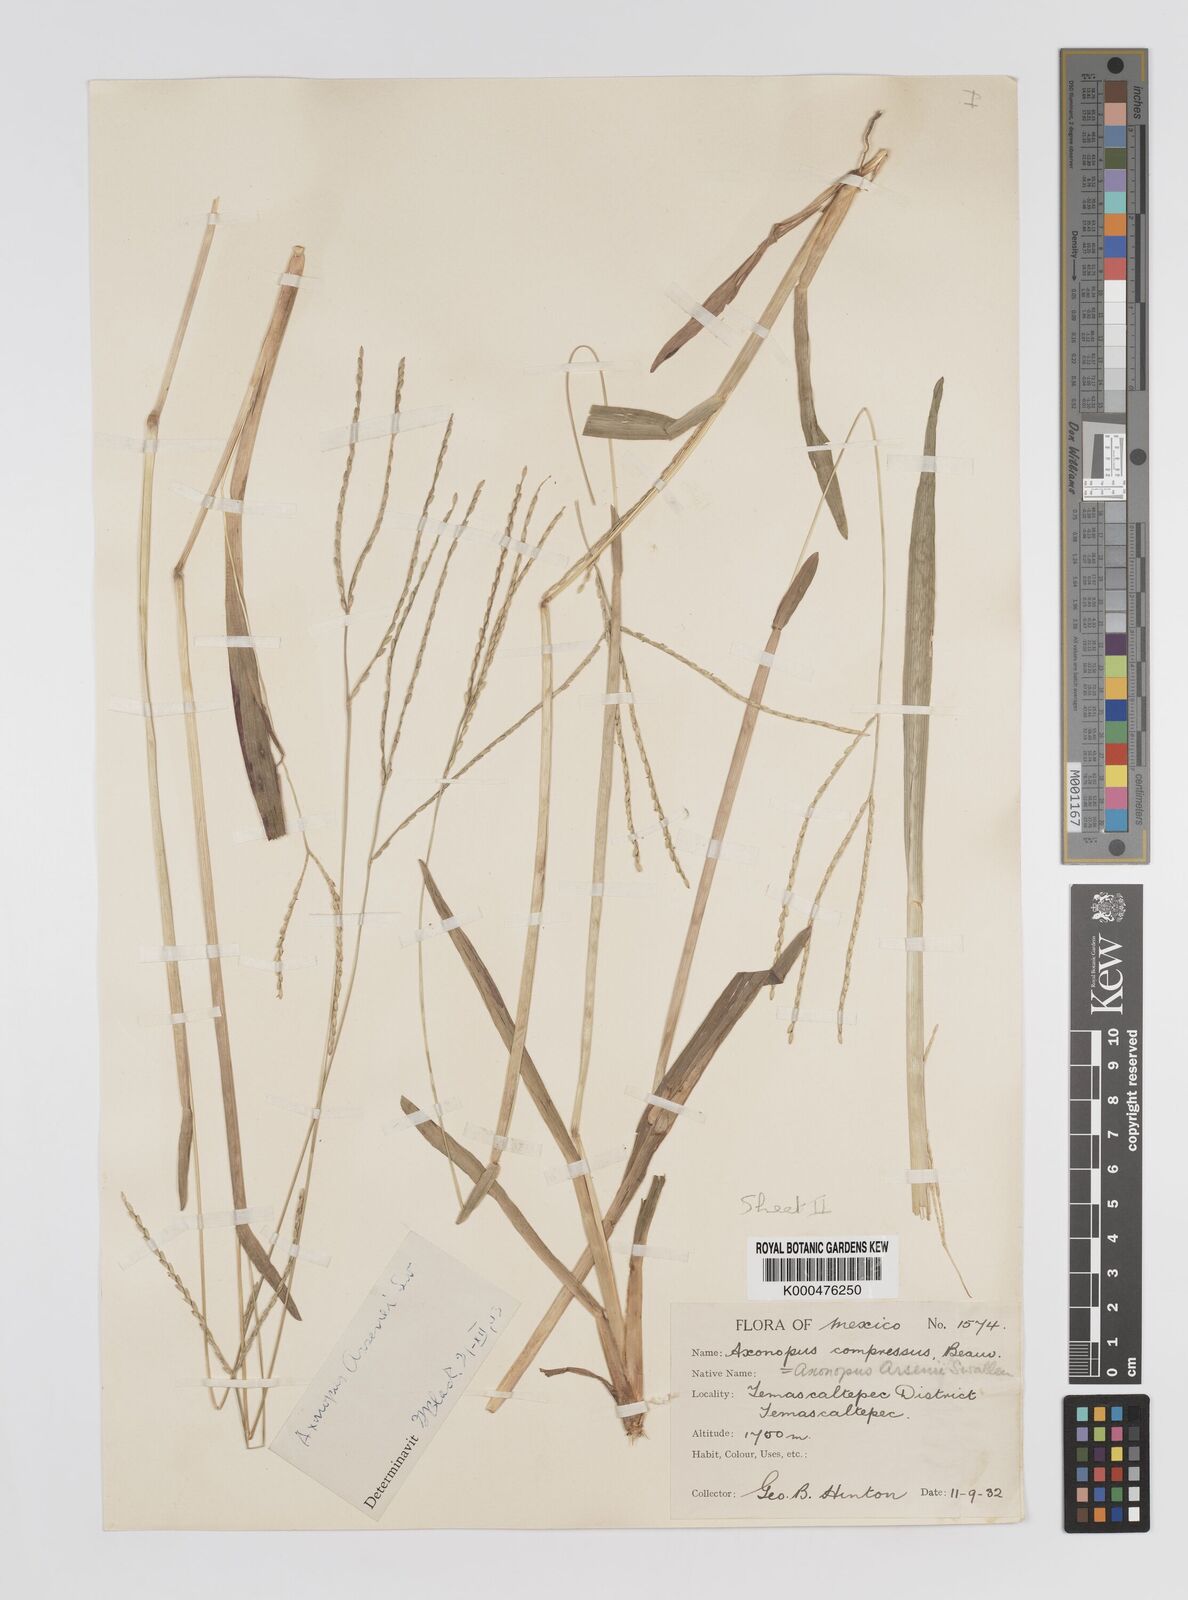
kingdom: Plantae
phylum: Tracheophyta
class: Liliopsida
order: Poales
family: Poaceae
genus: Axonopus
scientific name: Axonopus compressus
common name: American carpet grass
